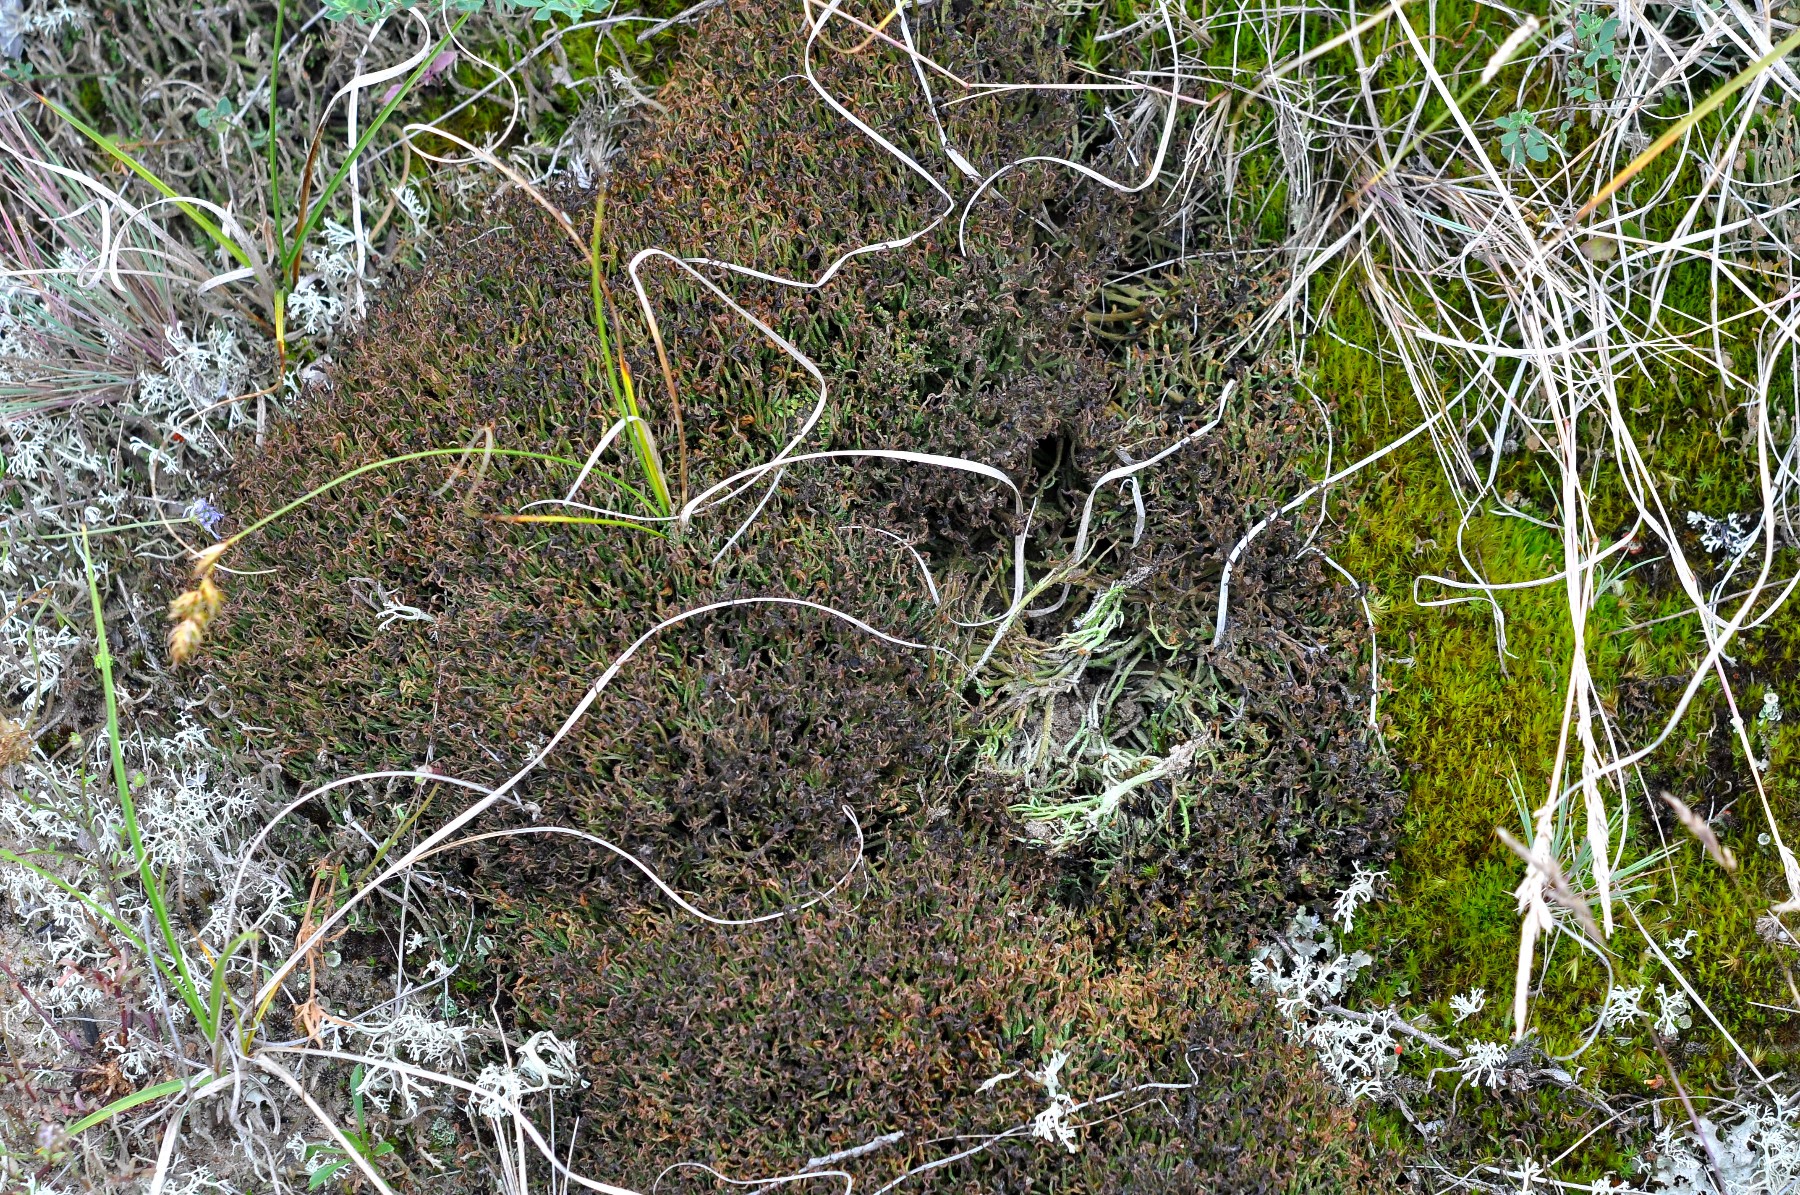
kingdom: Fungi
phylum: Ascomycota
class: Lecanoromycetes
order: Lecanorales
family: Cladoniaceae
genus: Cladonia
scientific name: Cladonia furcata
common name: kløftet bægerlav
